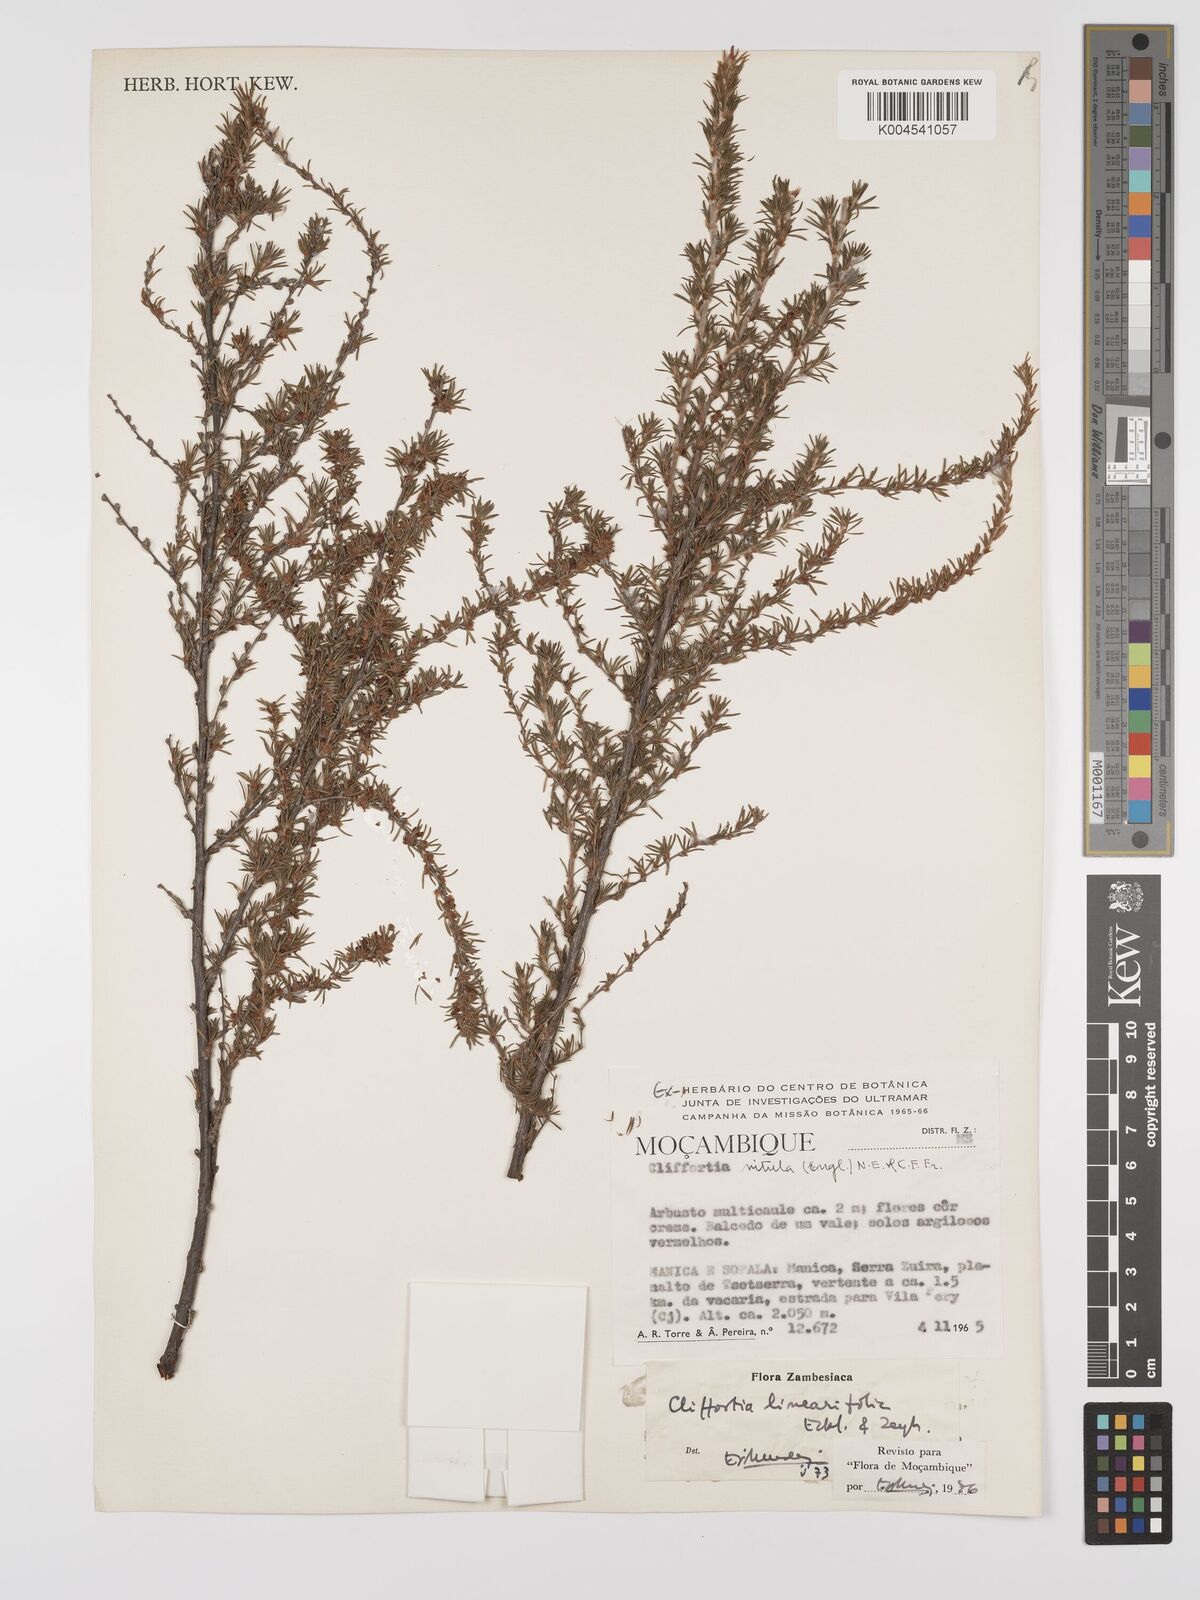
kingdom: Plantae
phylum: Tracheophyta
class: Magnoliopsida
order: Rosales
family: Rosaceae
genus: Cliffortia
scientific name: Cliffortia linearifolia
